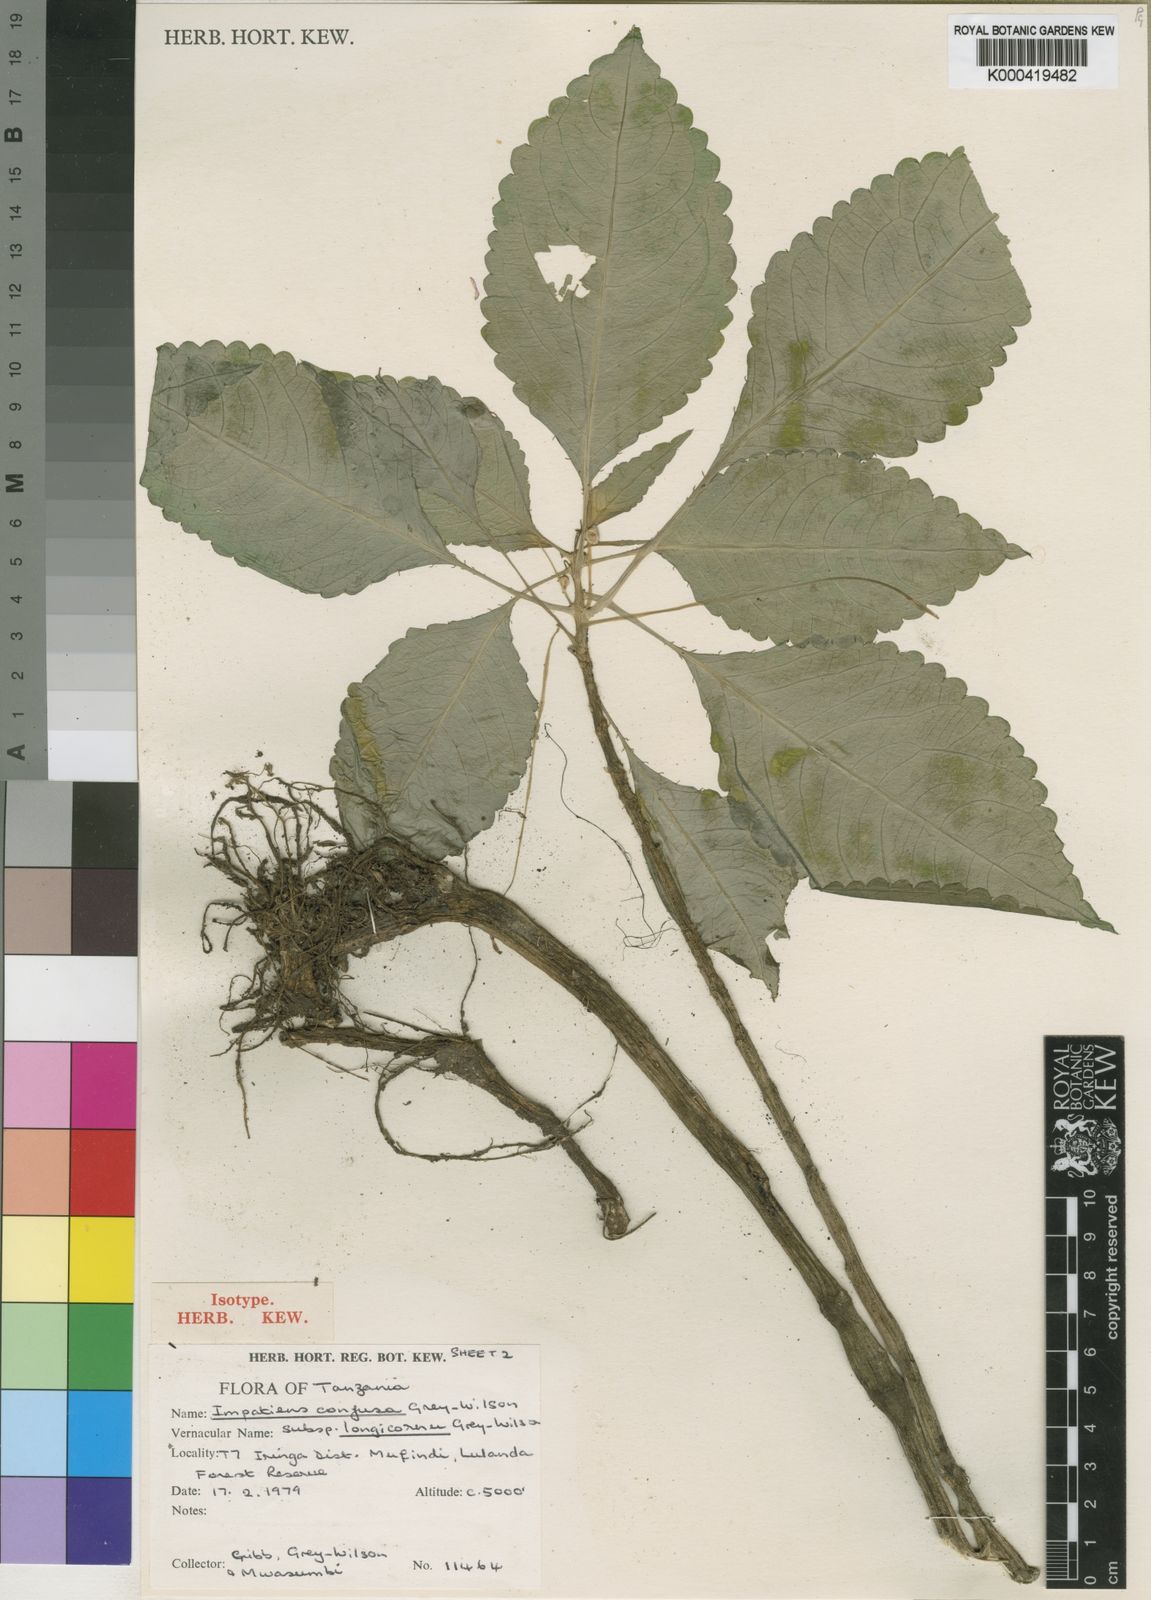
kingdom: Plantae
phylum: Tracheophyta
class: Magnoliopsida
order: Ericales
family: Balsaminaceae
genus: Impatiens
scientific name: Impatiens confusa
